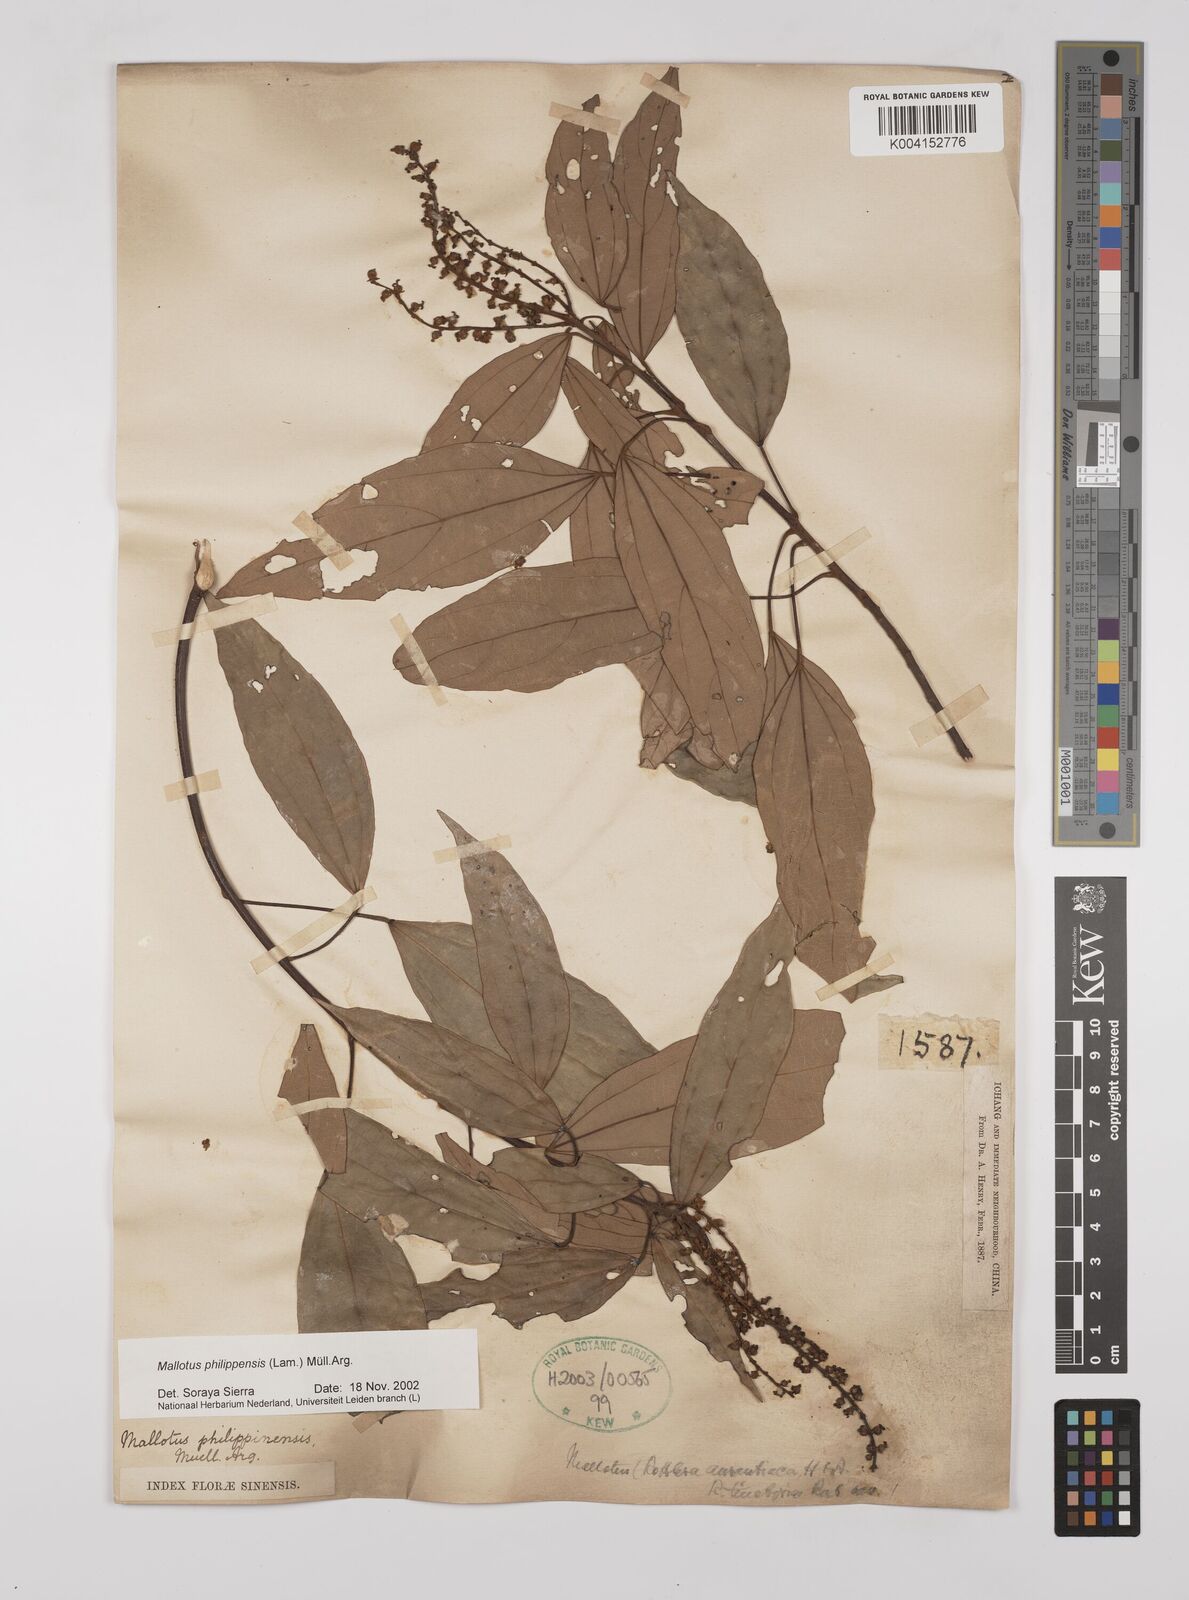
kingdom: Plantae
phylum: Tracheophyta
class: Magnoliopsida
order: Malpighiales
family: Euphorbiaceae
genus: Mallotus
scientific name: Mallotus philippensis
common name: Kamala tree
